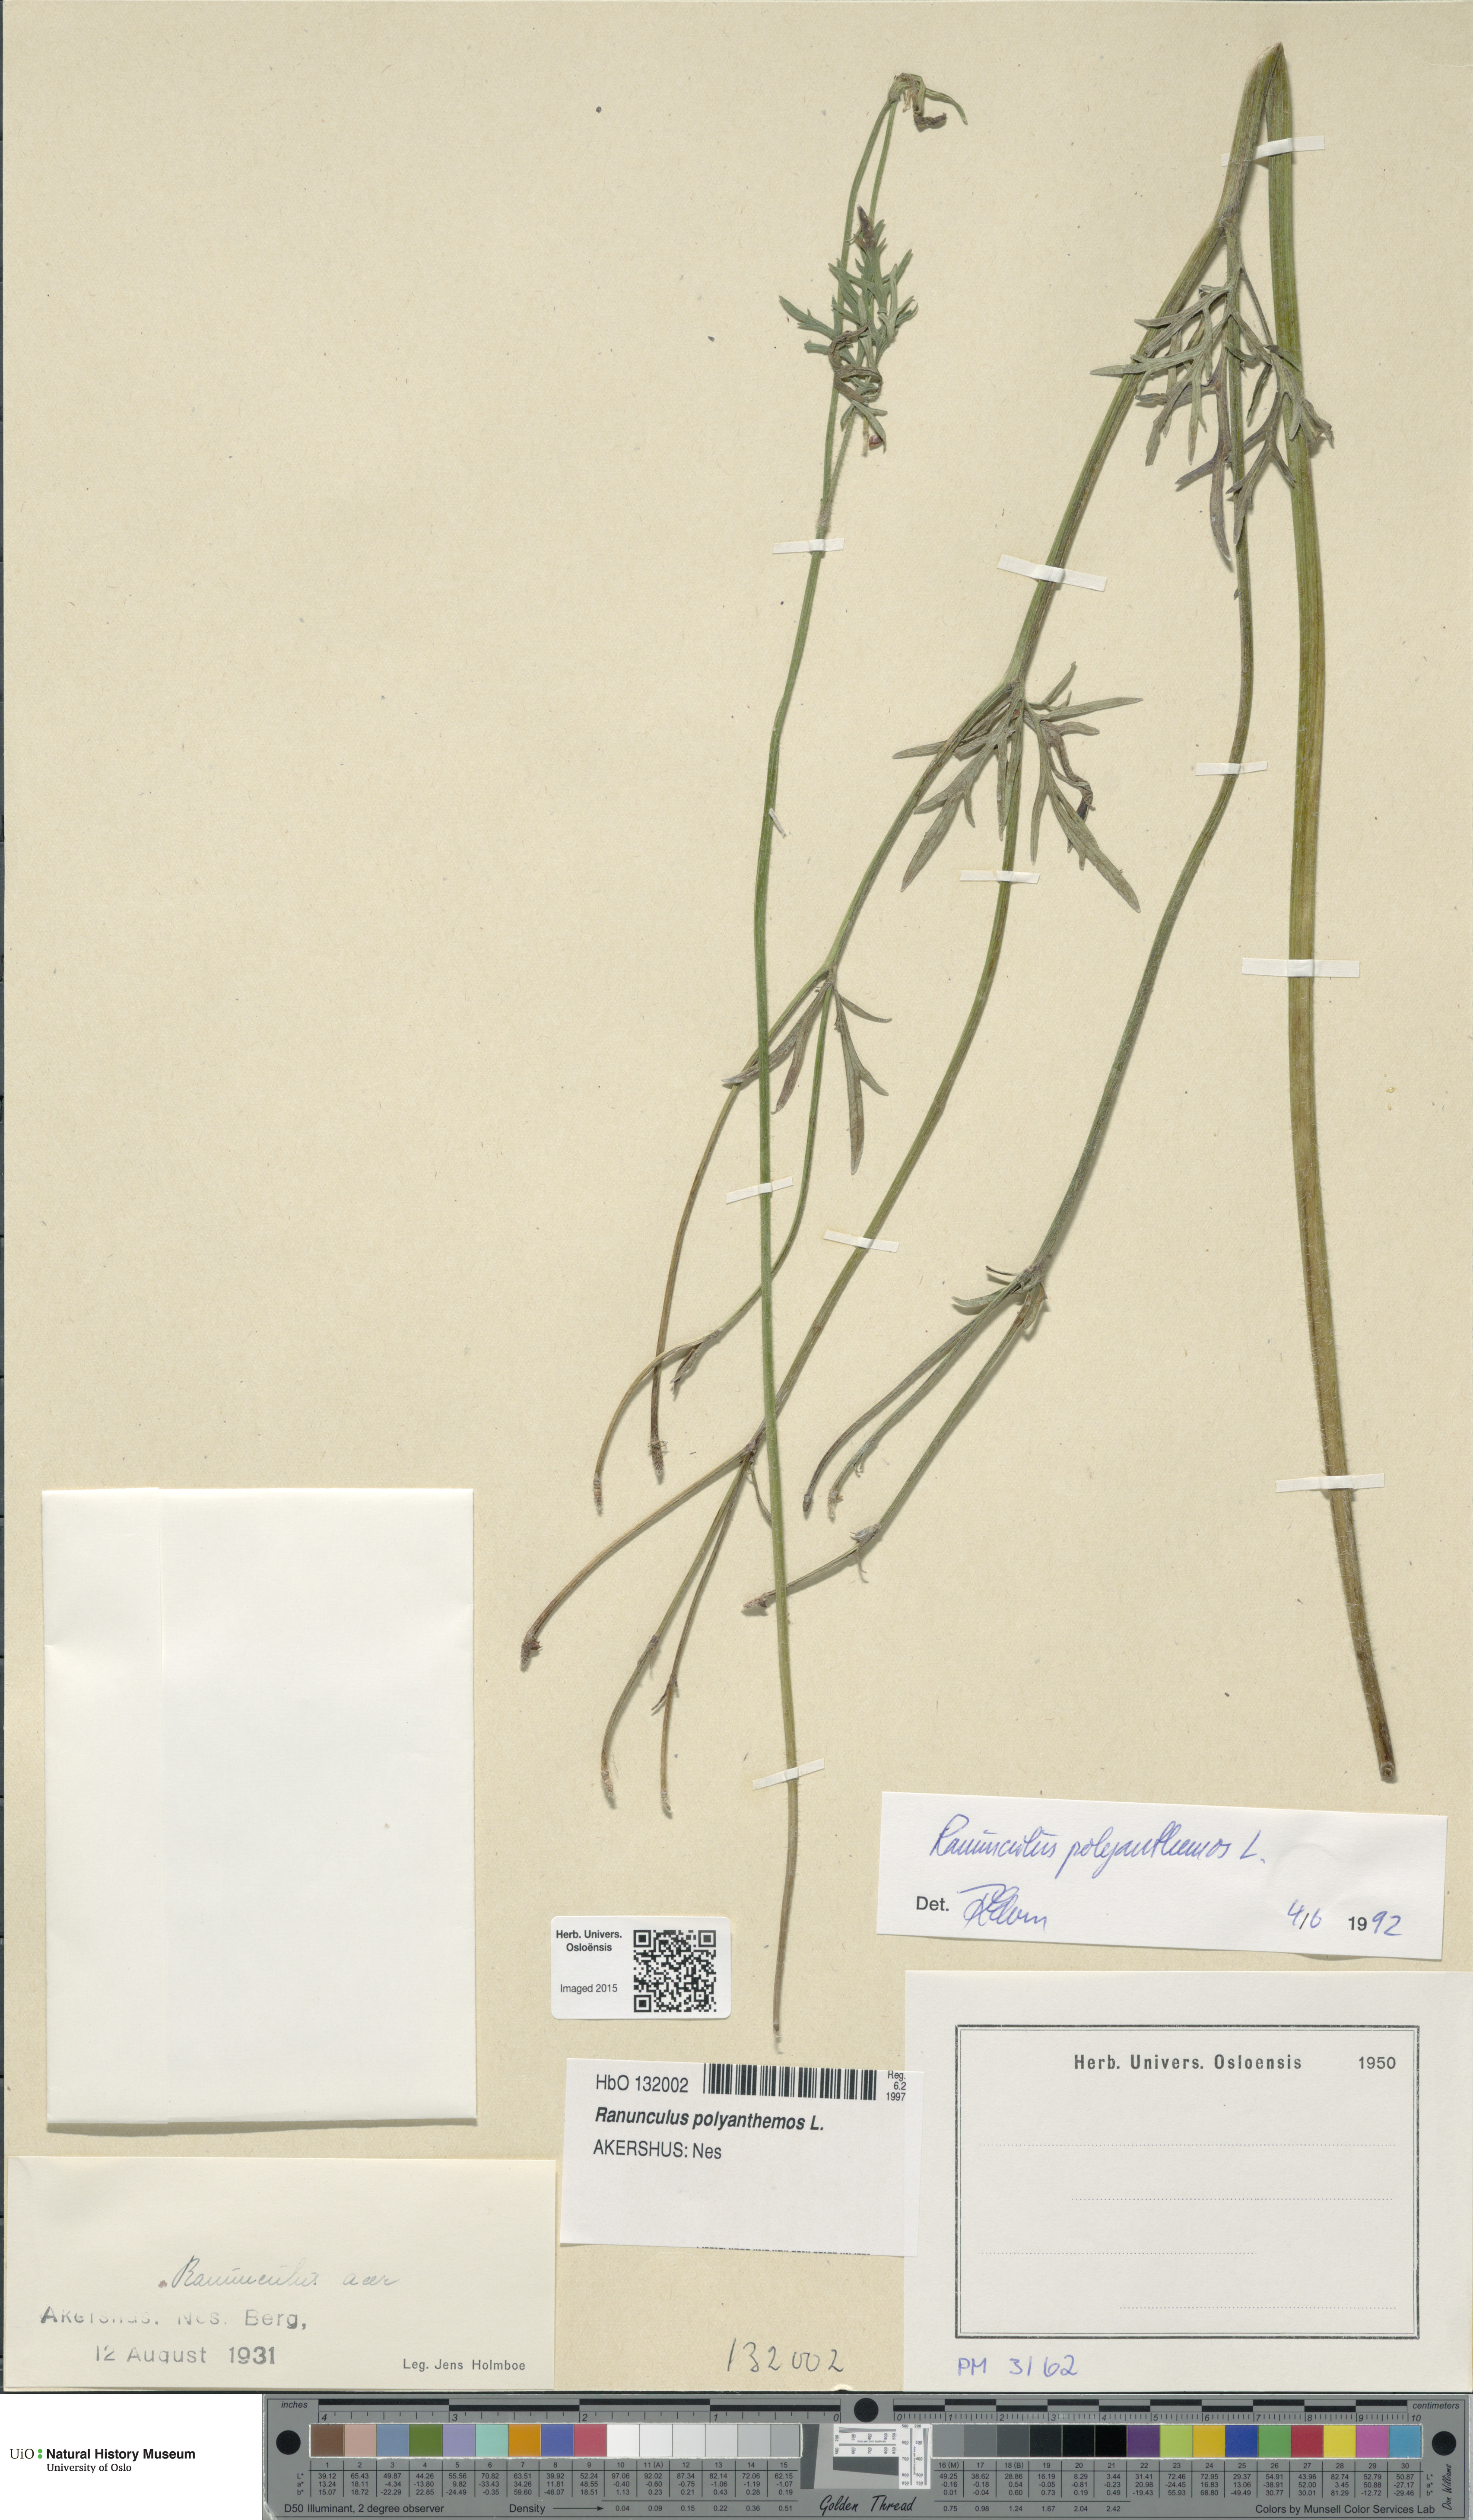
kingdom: Plantae
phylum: Tracheophyta
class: Magnoliopsida
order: Ranunculales
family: Ranunculaceae
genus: Ranunculus
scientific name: Ranunculus polyanthemos
